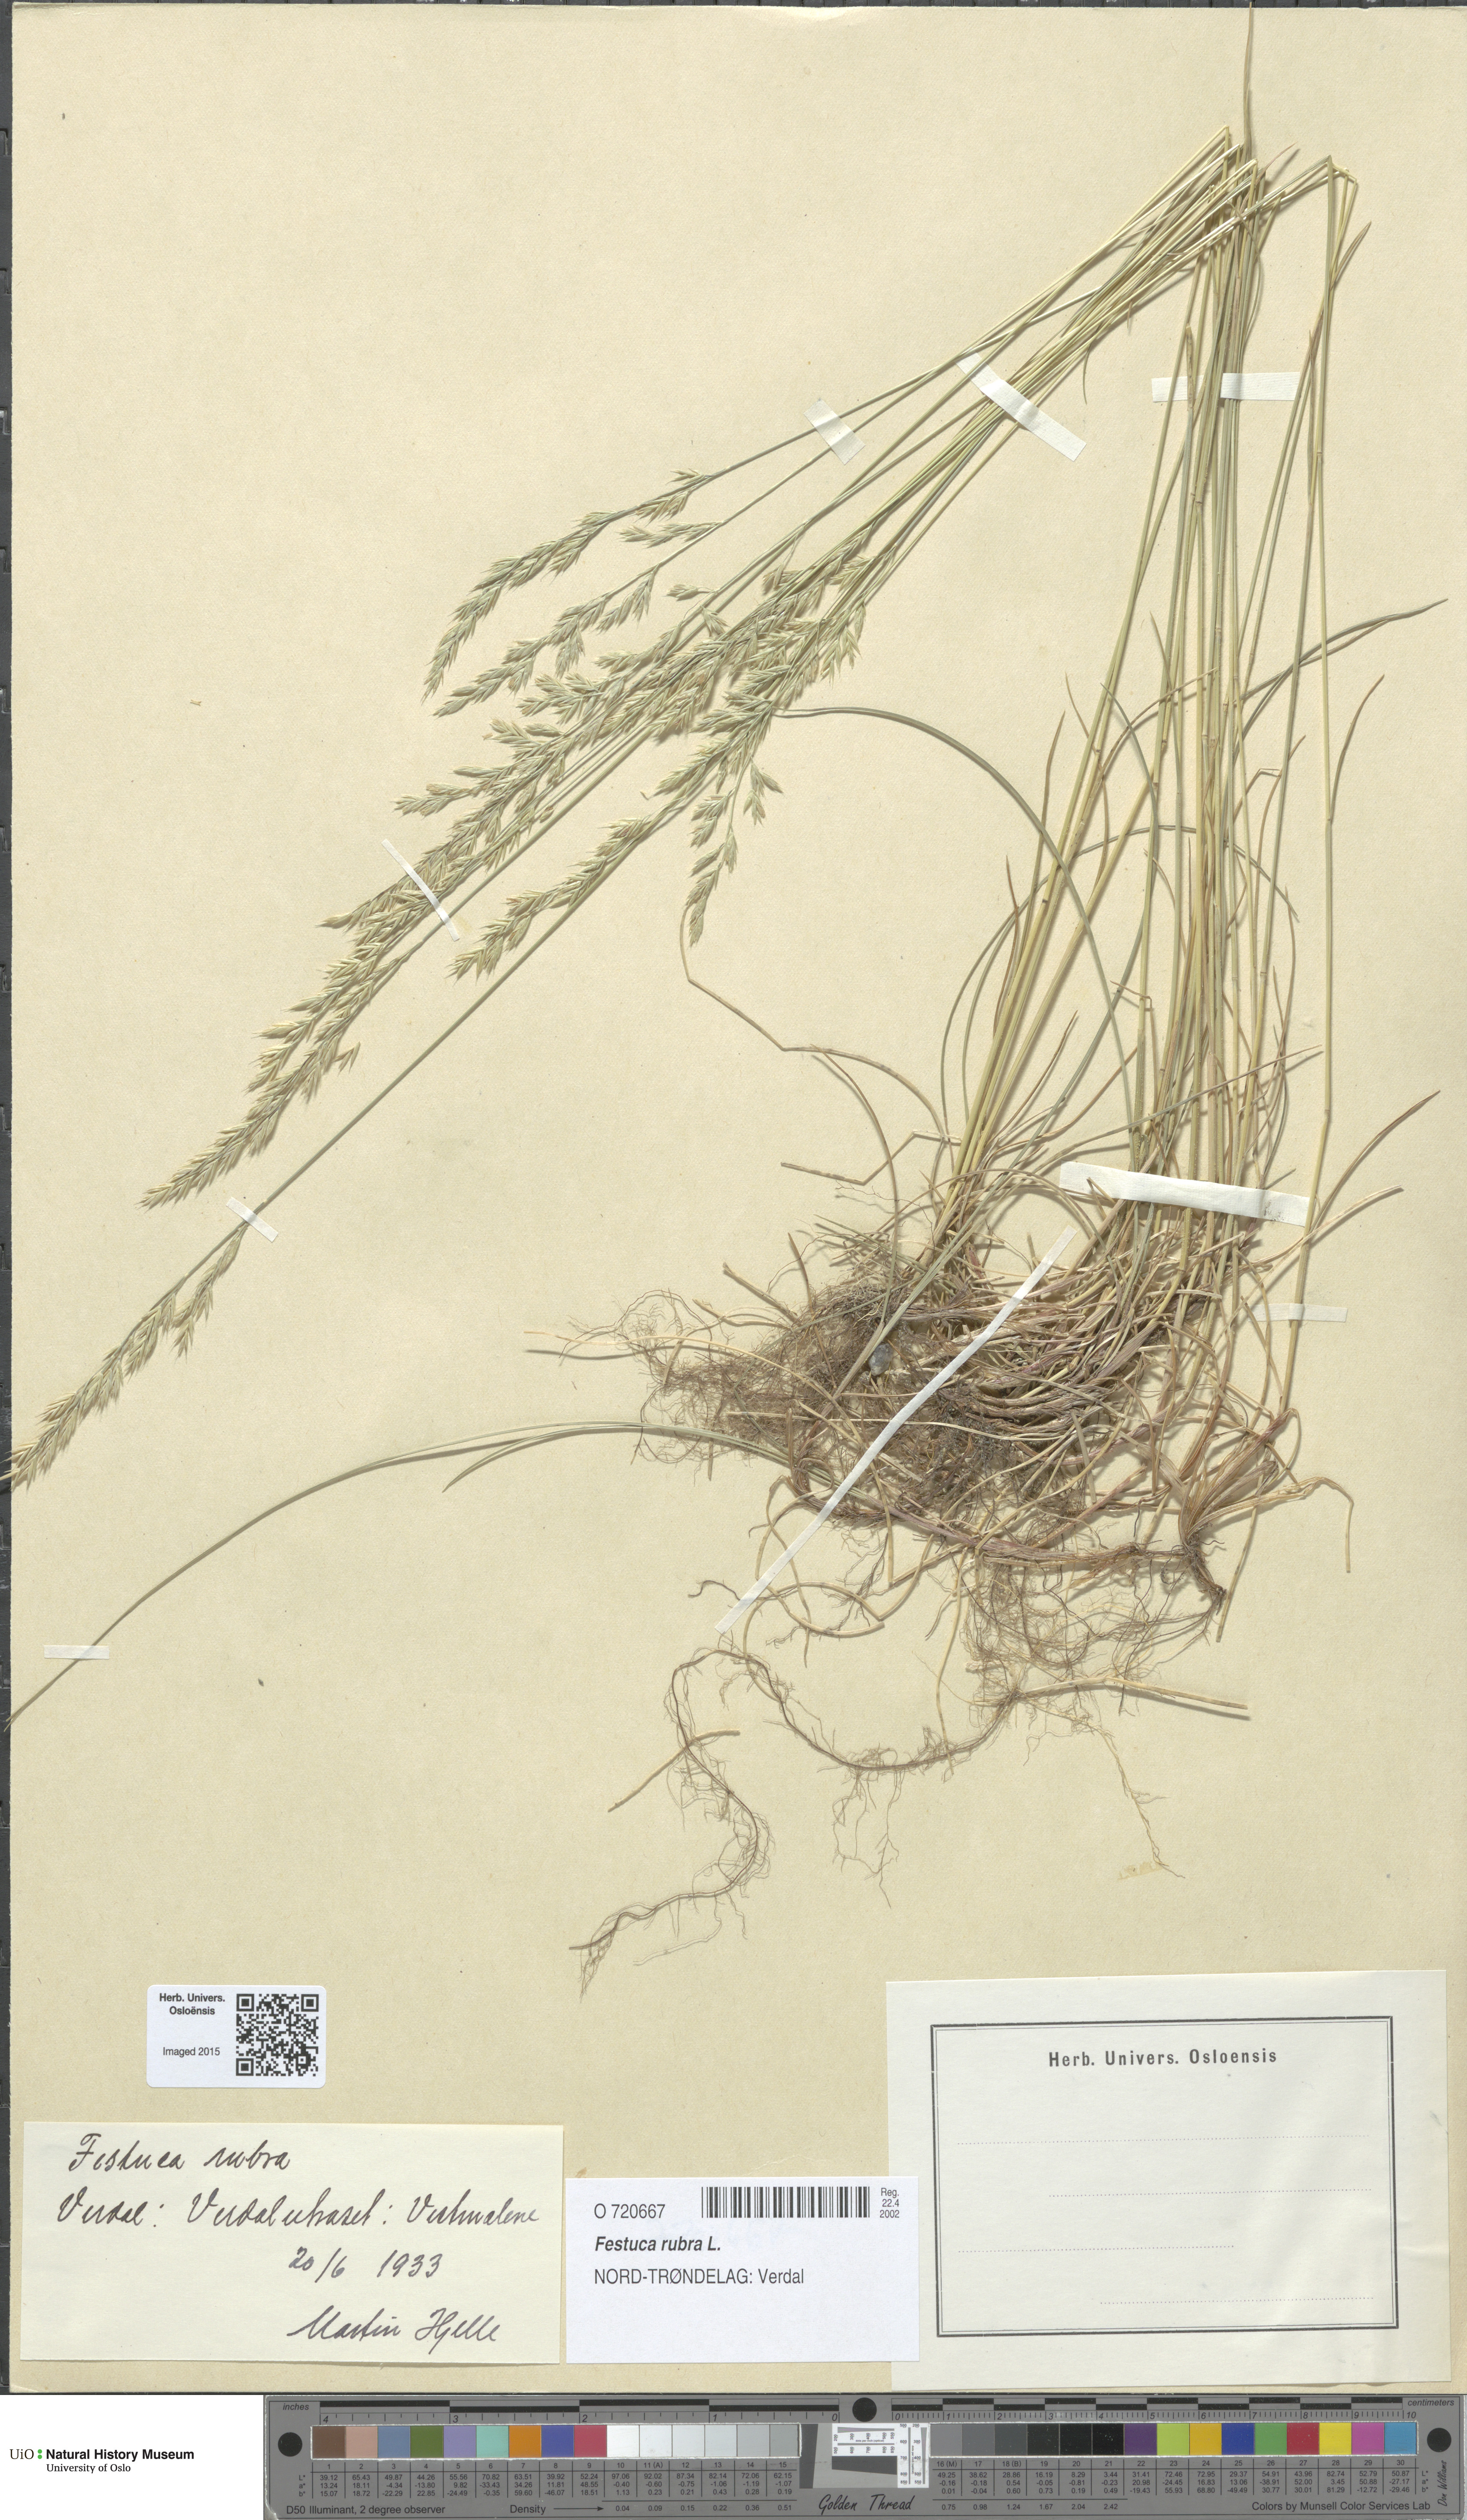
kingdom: Plantae
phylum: Tracheophyta
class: Liliopsida
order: Poales
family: Poaceae
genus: Festuca
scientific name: Festuca rubra
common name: Red fescue
